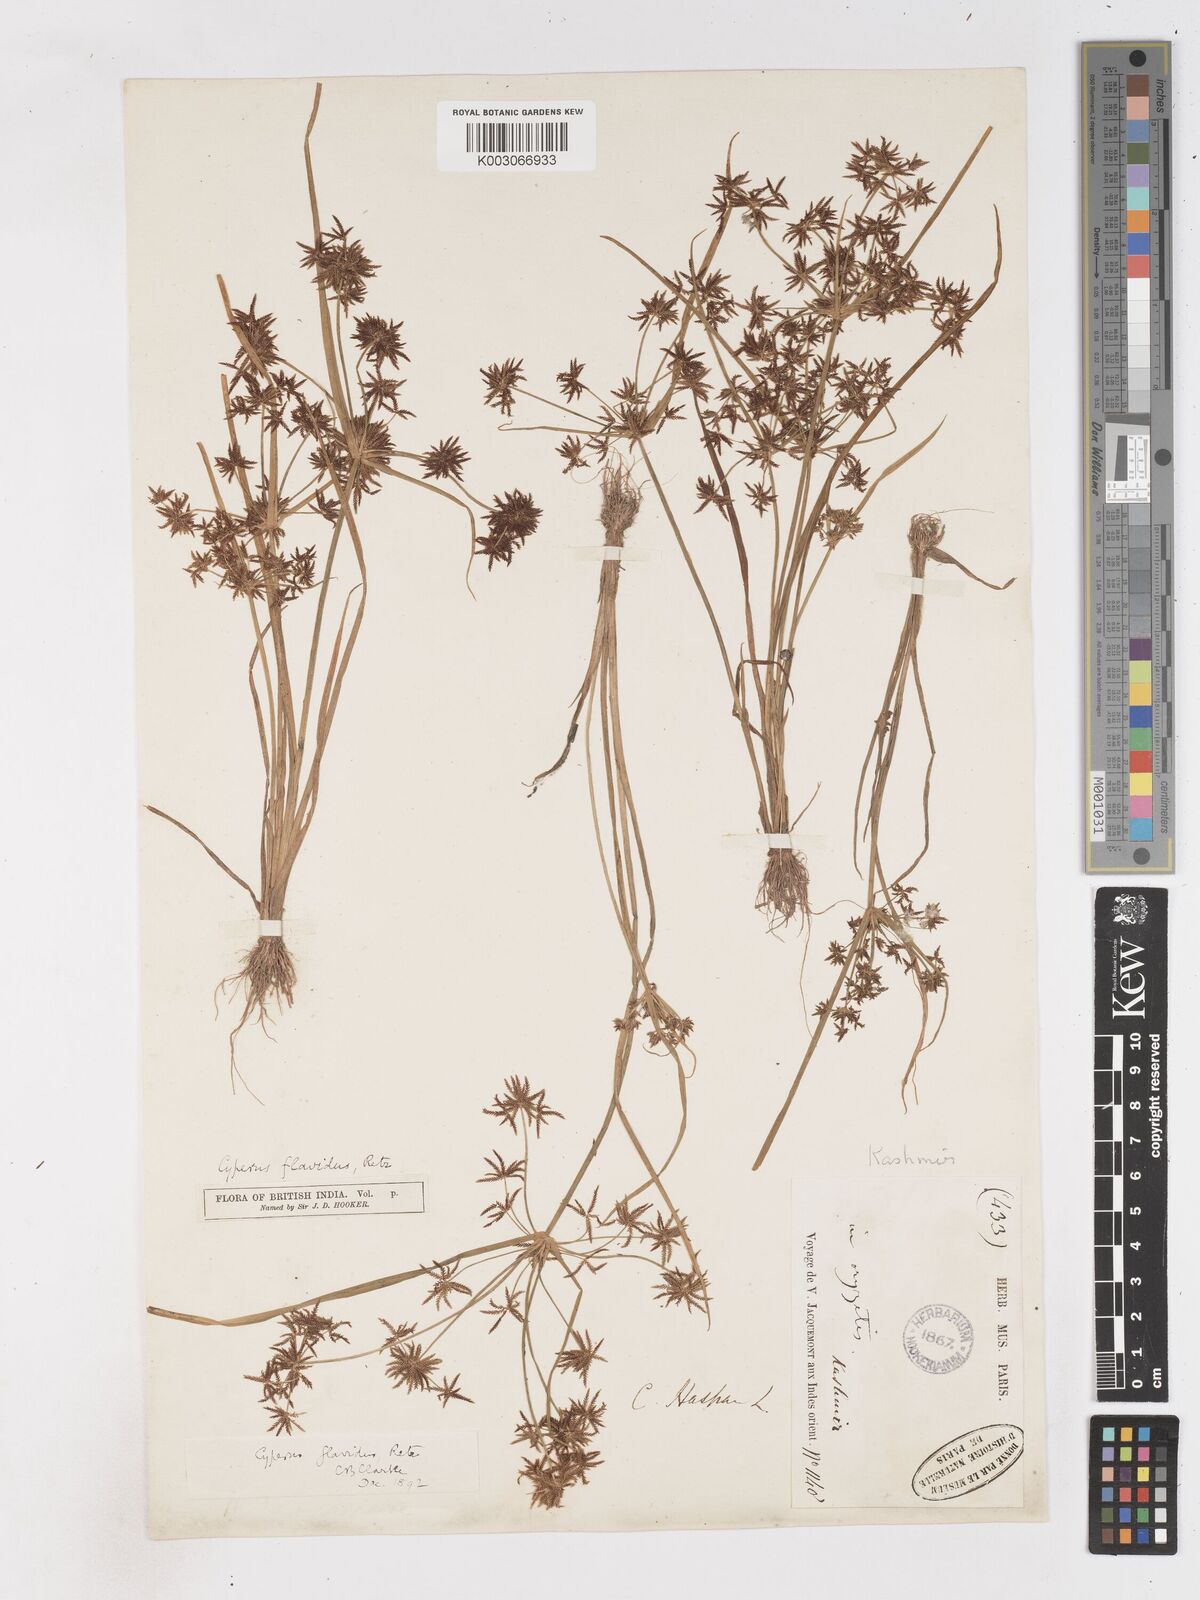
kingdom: Plantae
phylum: Tracheophyta
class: Liliopsida
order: Poales
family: Cyperaceae
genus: Cyperus
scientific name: Cyperus tenuispica
